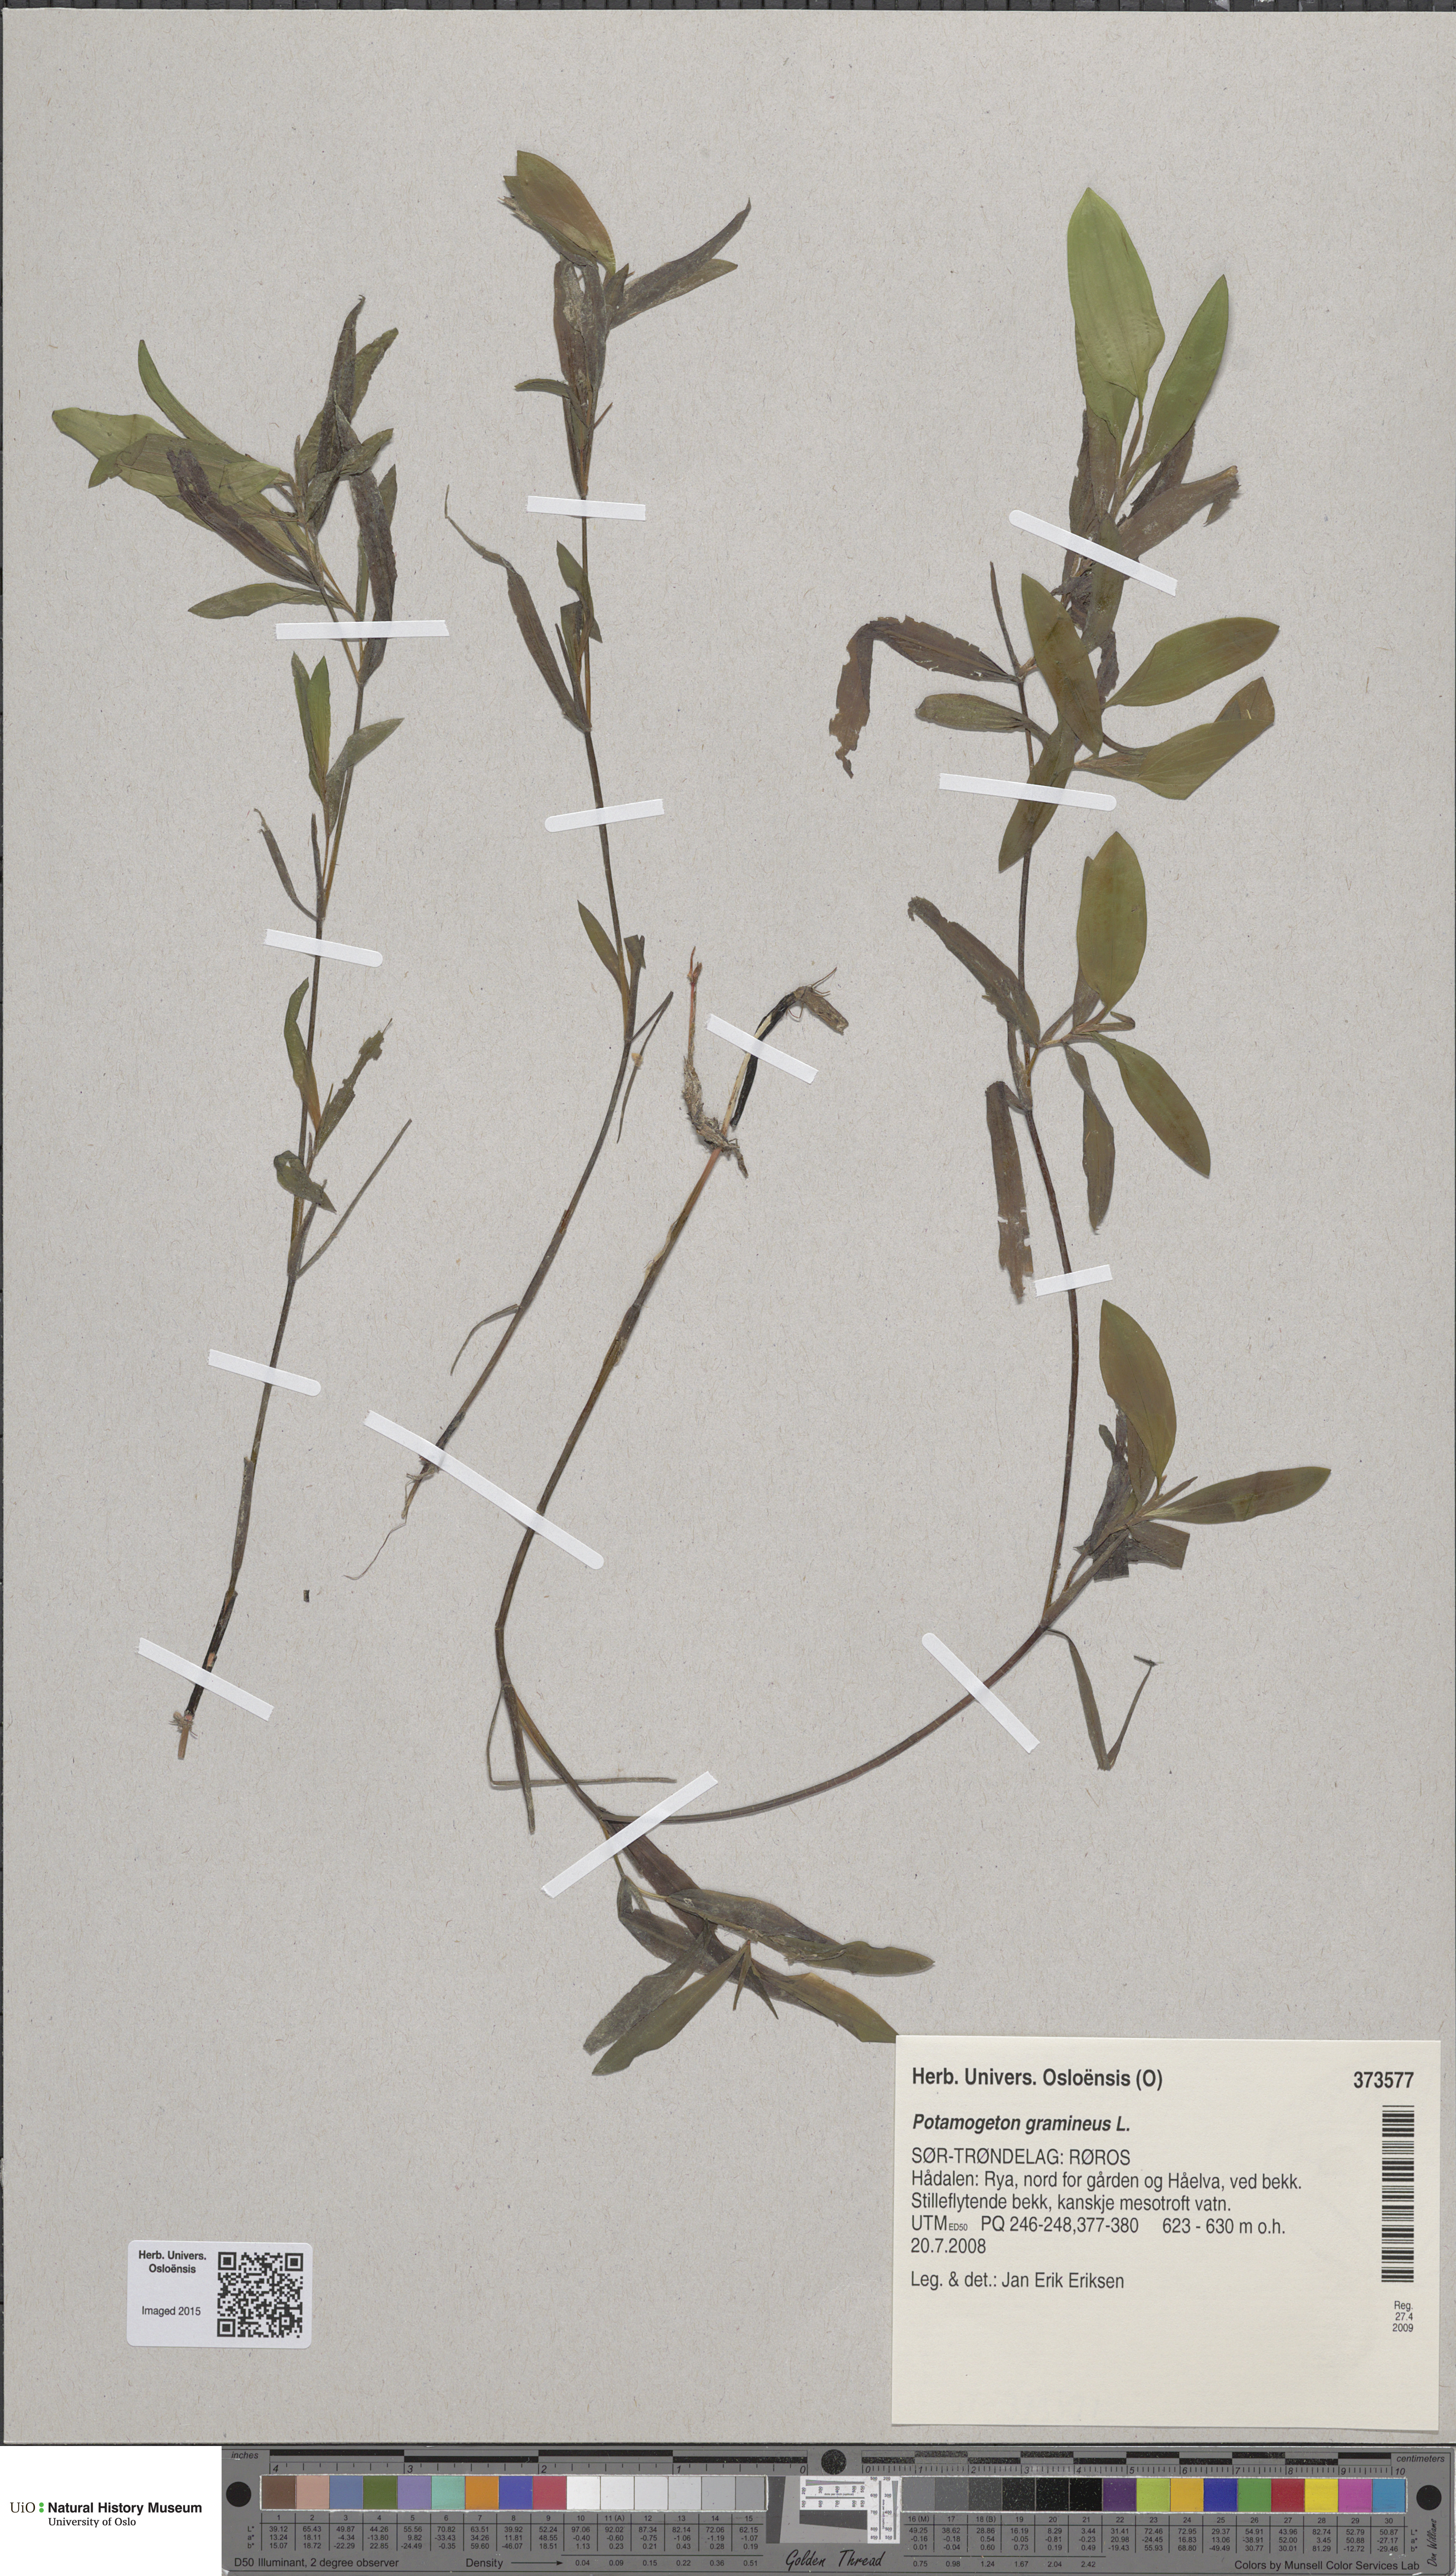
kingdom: Plantae
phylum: Tracheophyta
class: Liliopsida
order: Alismatales
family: Potamogetonaceae
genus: Potamogeton
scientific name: Potamogeton gramineus
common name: Various-leaved pondweed
